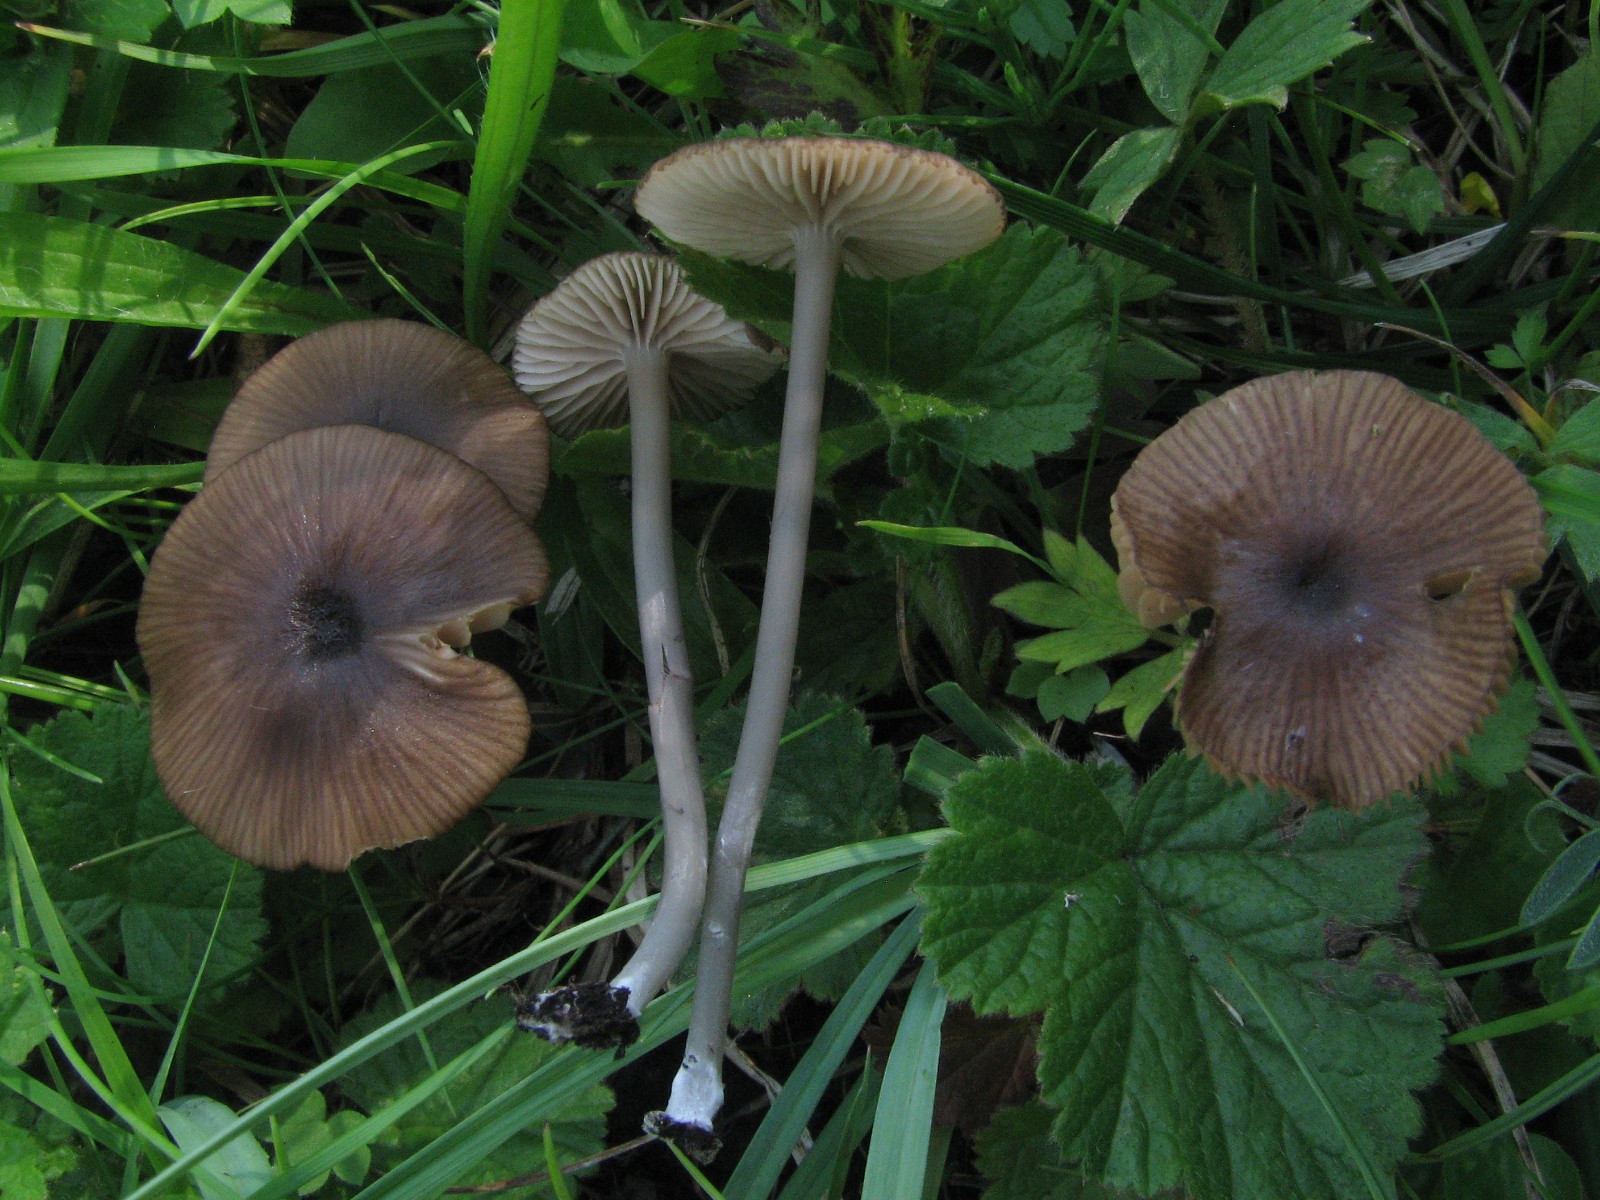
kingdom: Fungi
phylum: Basidiomycota
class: Agaricomycetes
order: Agaricales
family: Entolomataceae
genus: Entoloma
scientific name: Entoloma longistriatum
